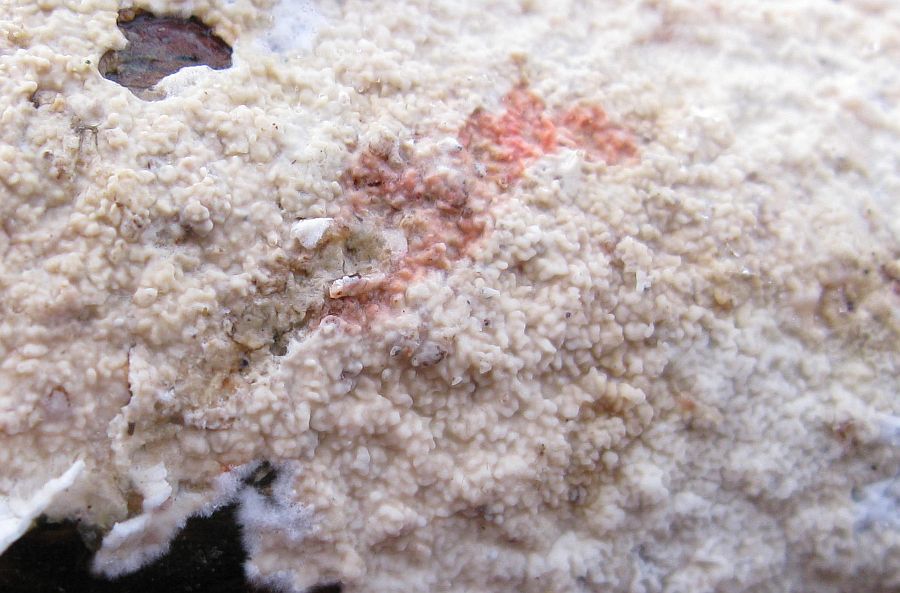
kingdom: Fungi
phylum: Basidiomycota
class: Agaricomycetes
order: Polyporales
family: Irpicaceae
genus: Byssomerulius
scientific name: Byssomerulius corium
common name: læder-åresvamp
